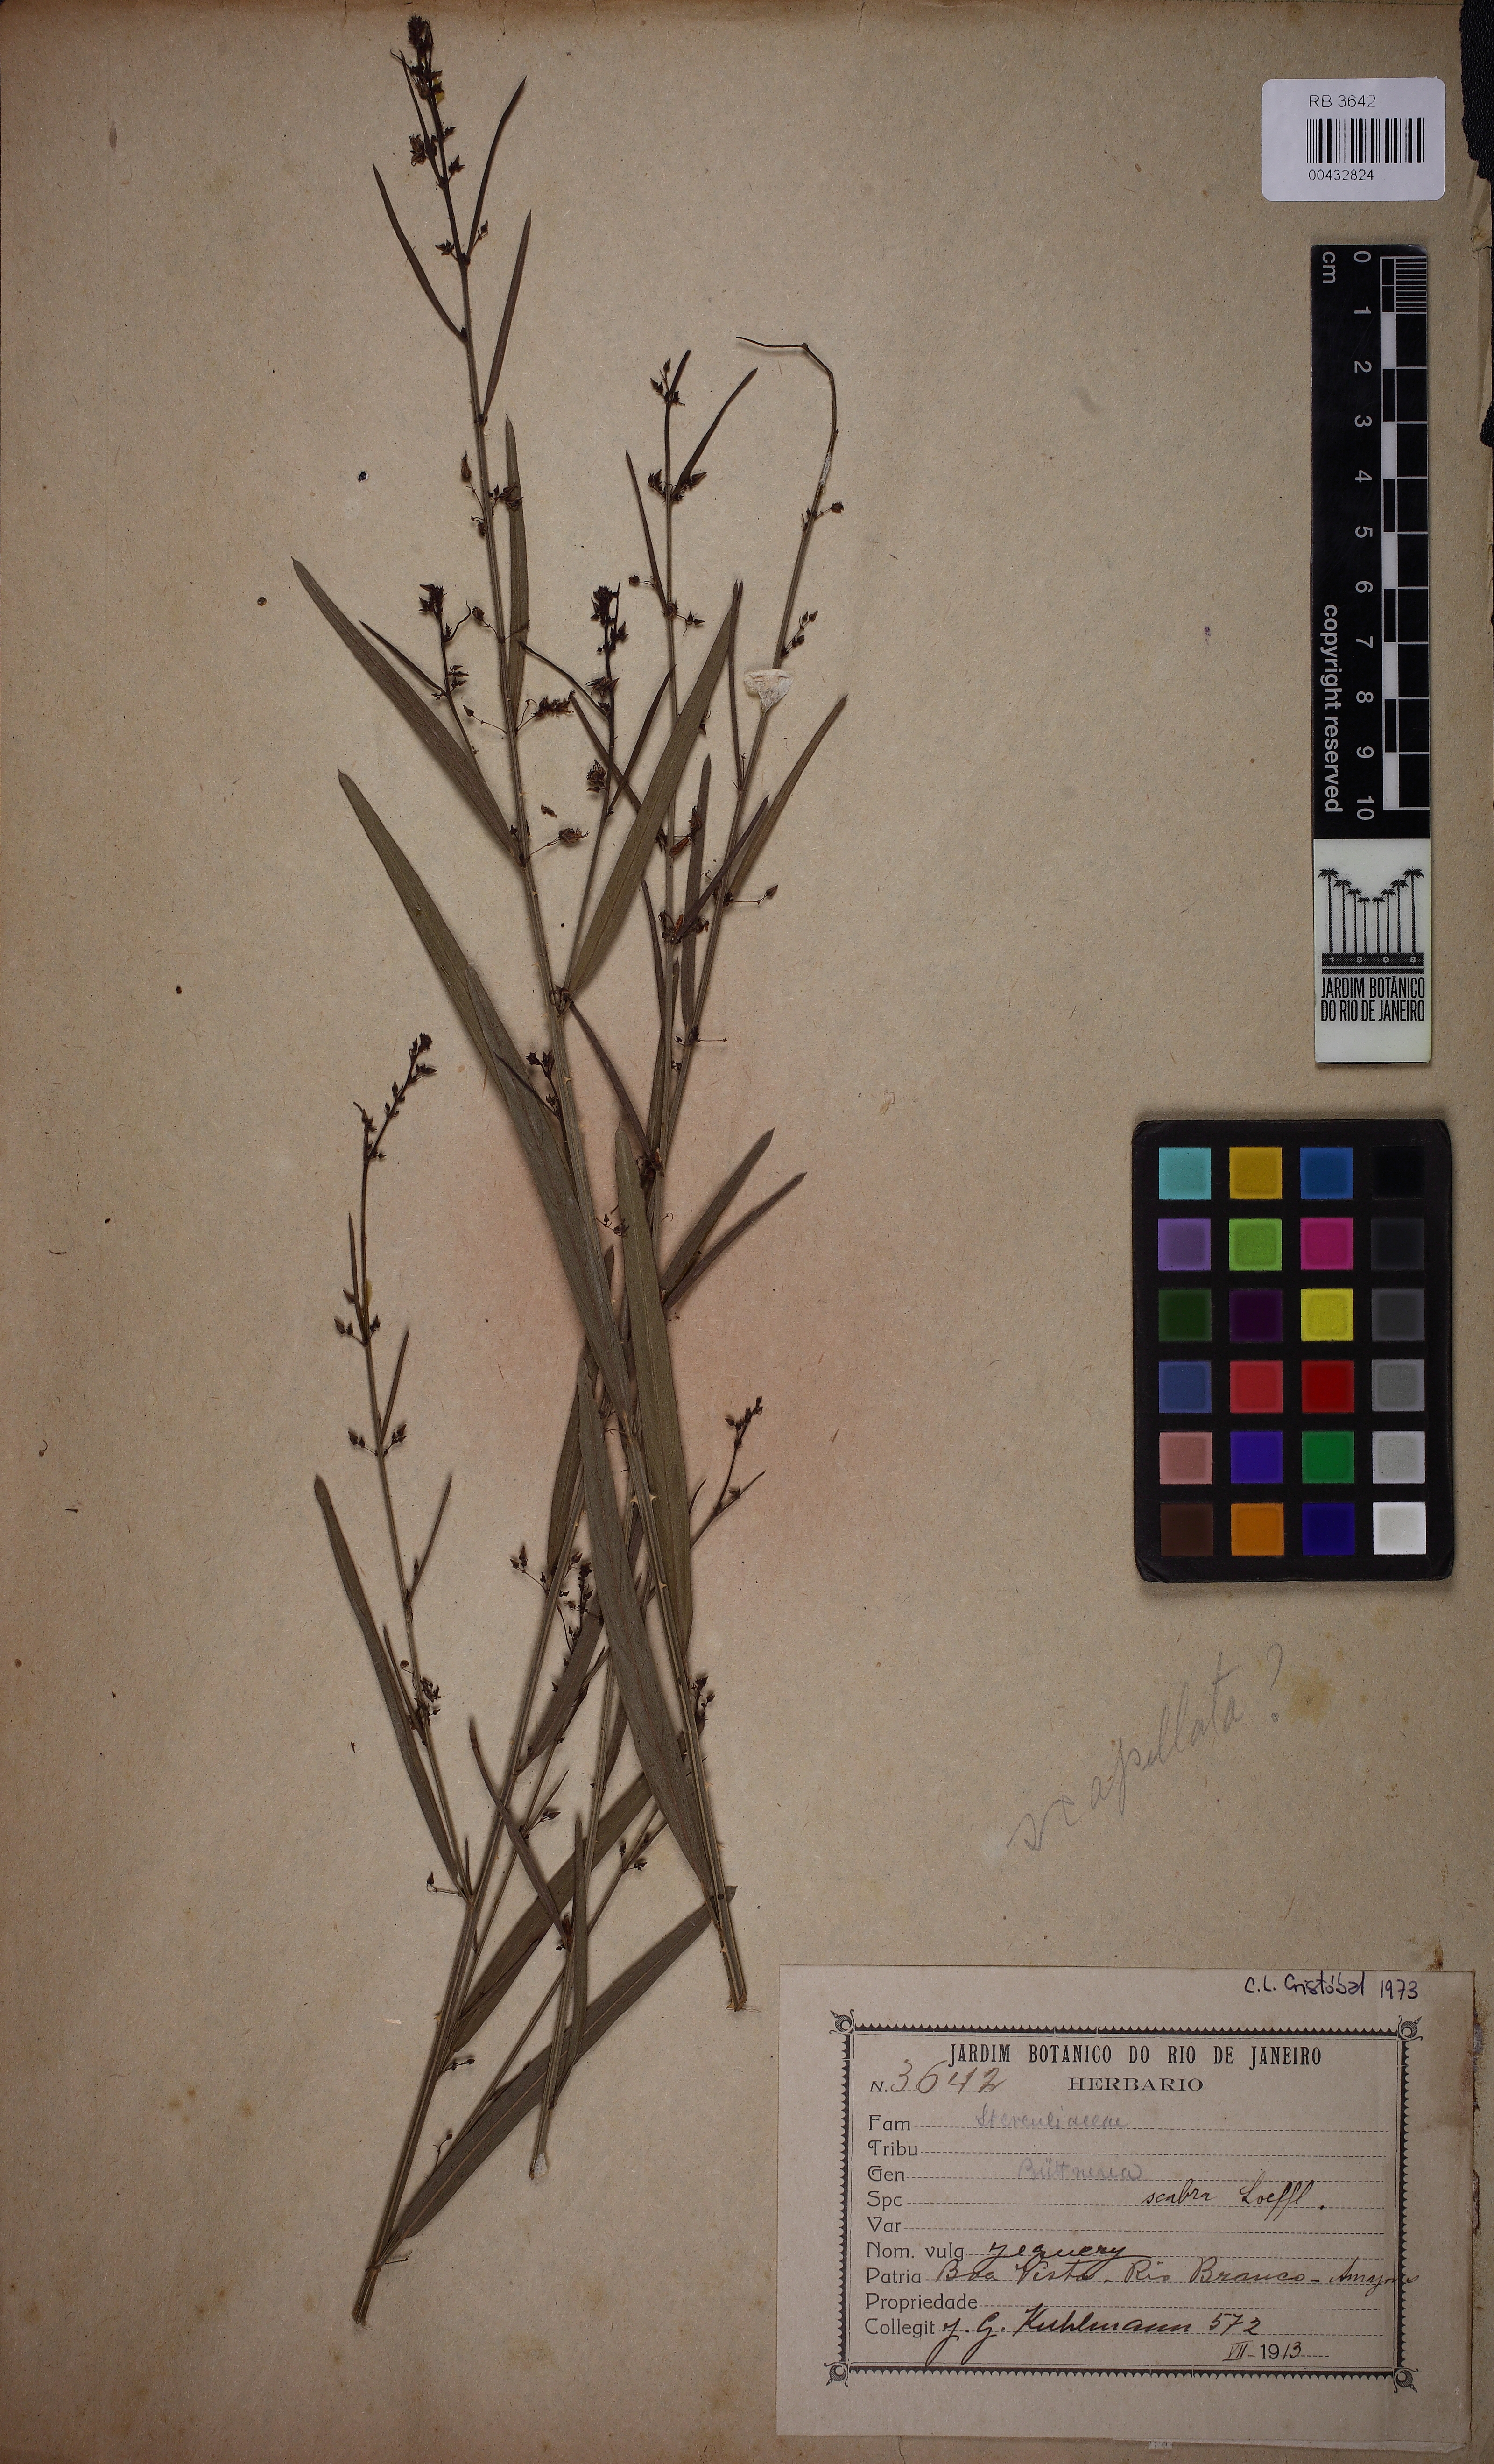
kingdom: Plantae
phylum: Tracheophyta
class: Magnoliopsida
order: Malvales
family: Malvaceae
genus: Byttneria
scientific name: Byttneria scabra
